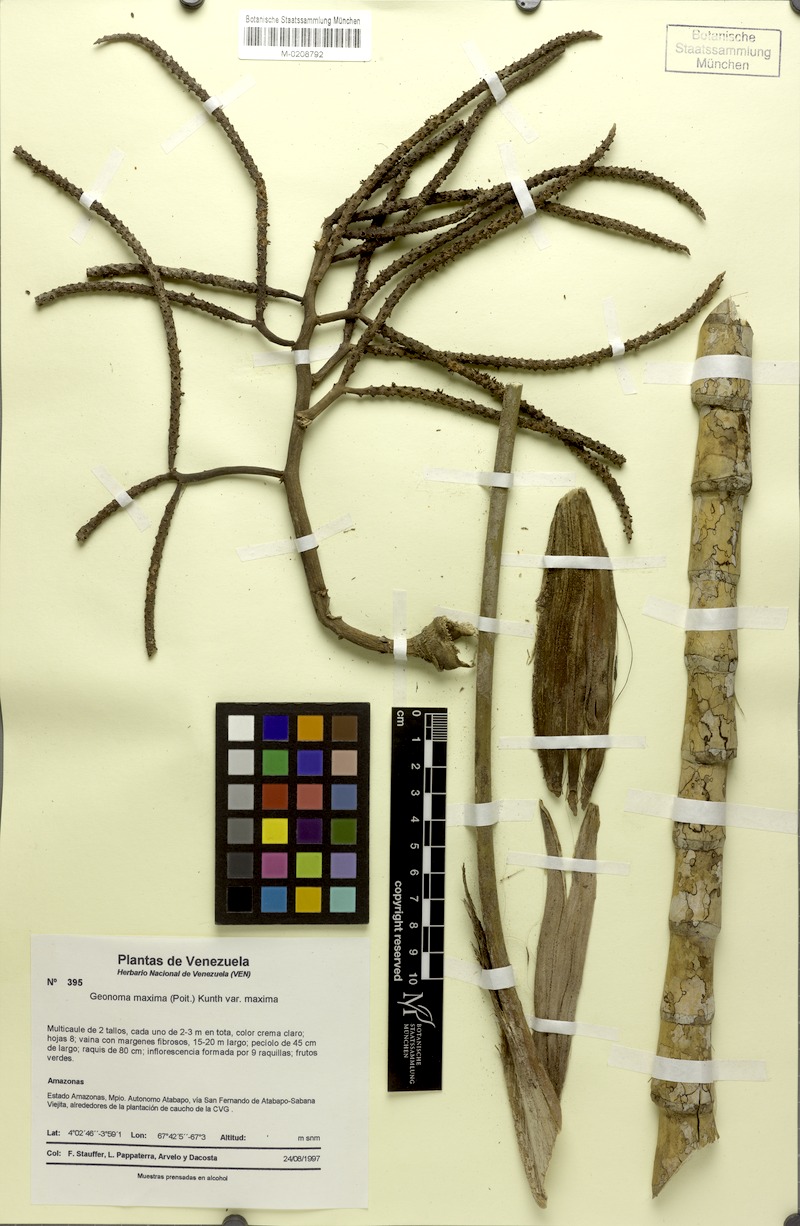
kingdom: Plantae
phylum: Tracheophyta
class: Liliopsida
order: Arecales
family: Arecaceae
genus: Geonoma
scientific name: Geonoma maxima
